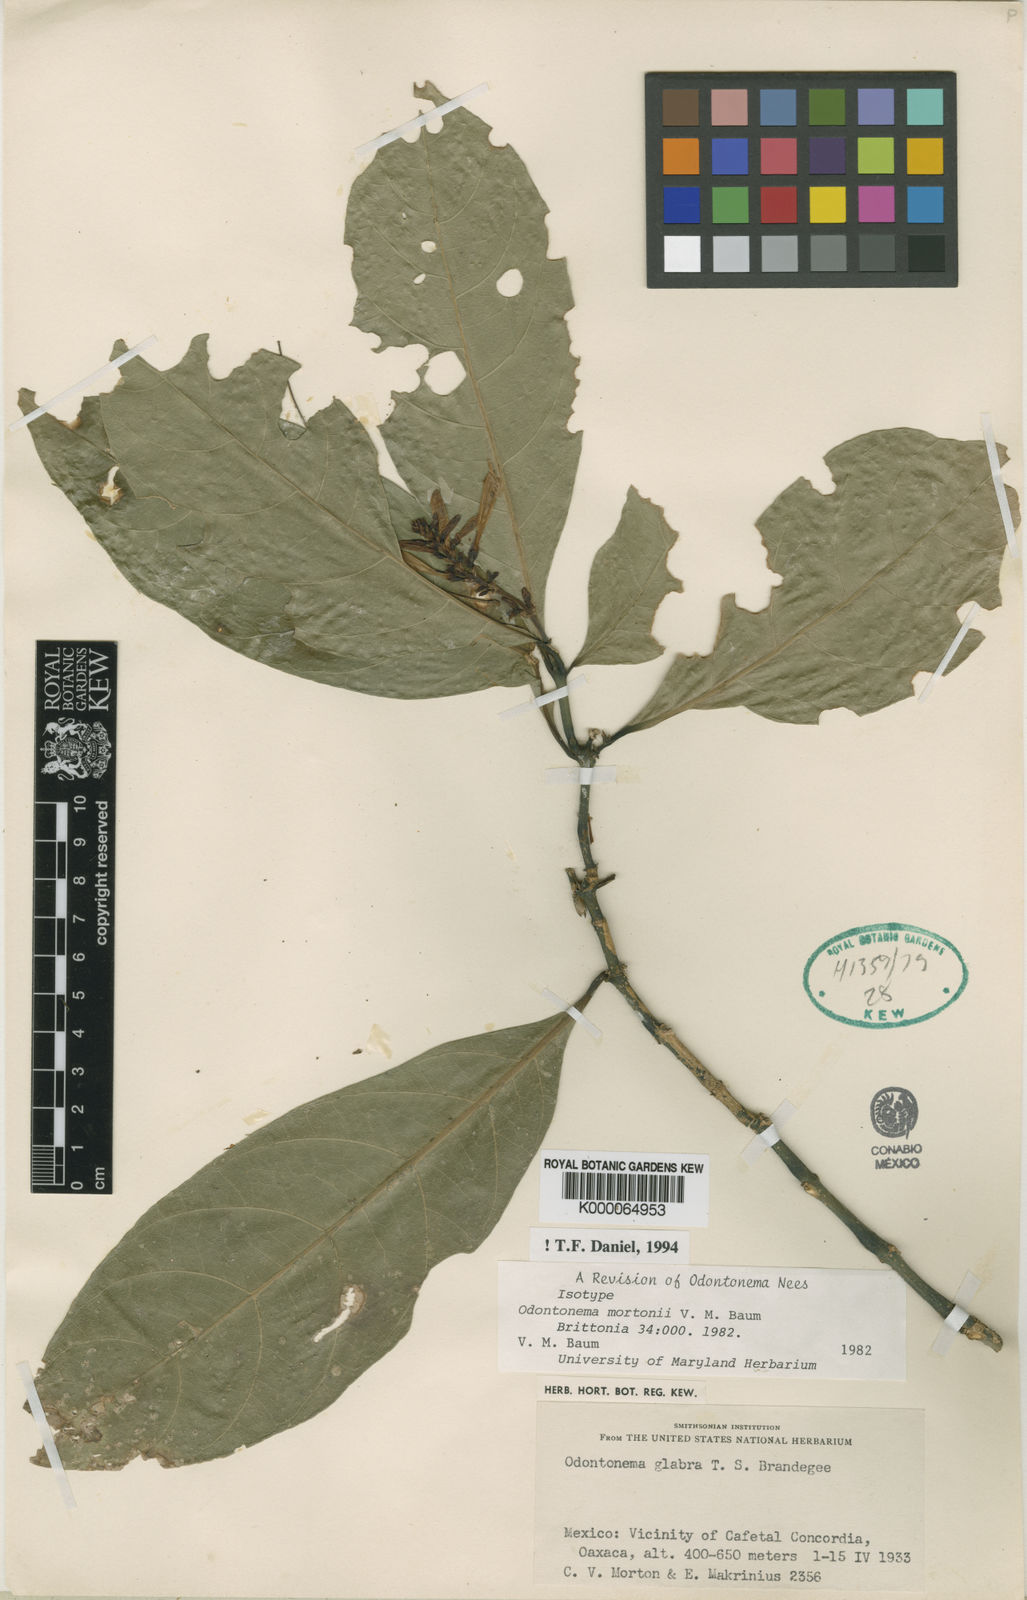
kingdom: Plantae
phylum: Tracheophyta
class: Magnoliopsida
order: Lamiales
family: Acanthaceae
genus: Odontonema
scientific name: Odontonema mortonii
